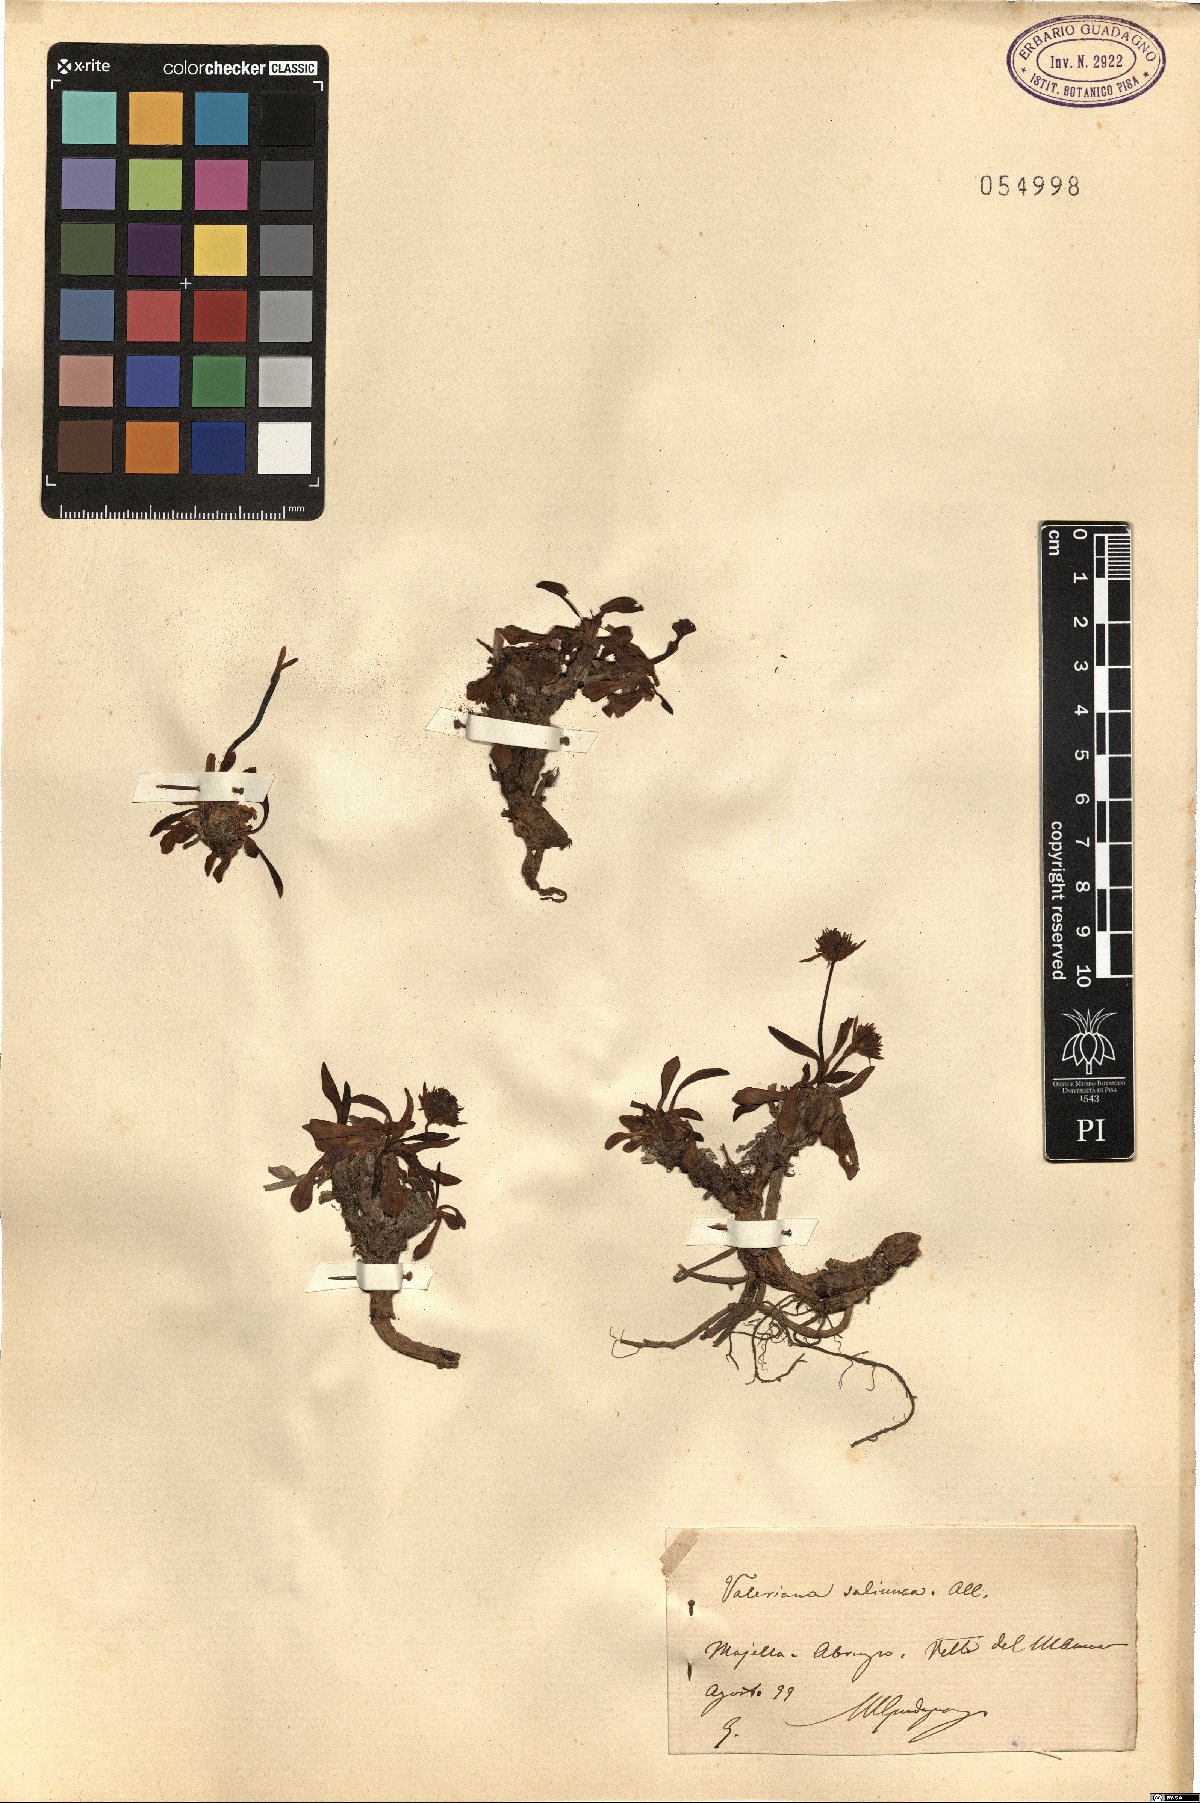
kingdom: Plantae
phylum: Tracheophyta
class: Magnoliopsida
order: Dipsacales
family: Caprifoliaceae
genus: Valeriana
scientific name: Valeriana saliunca
